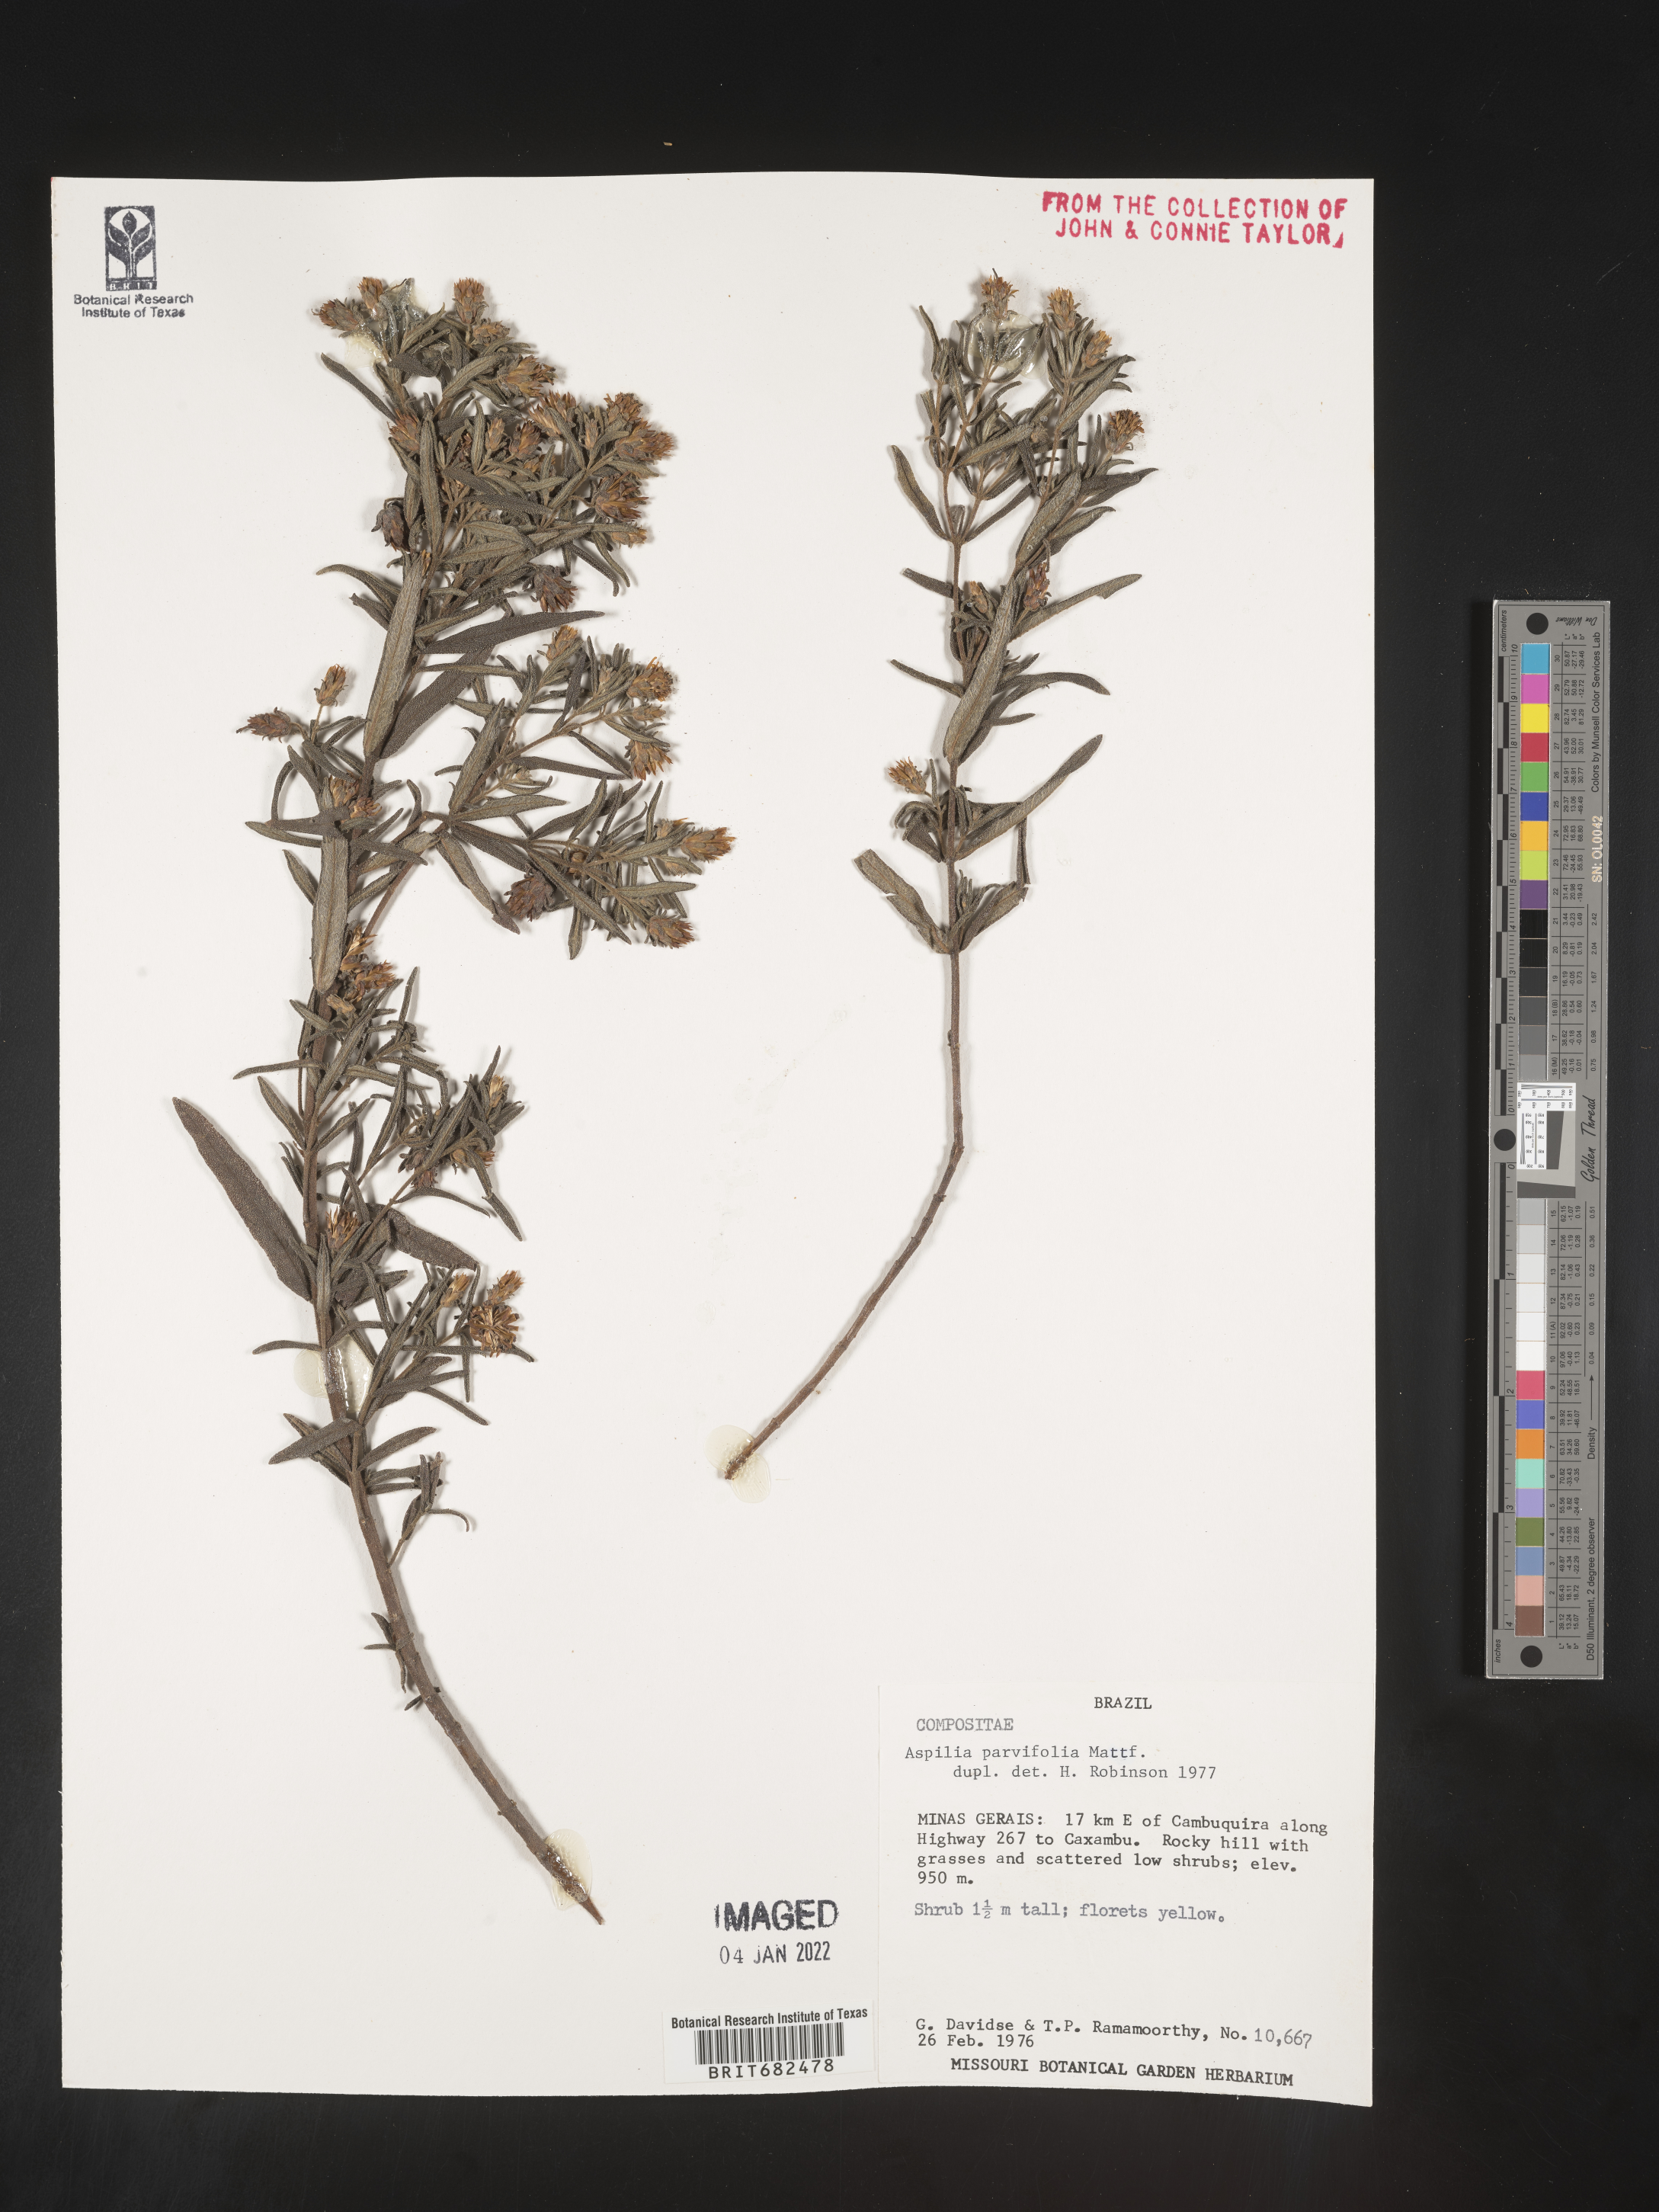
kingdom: Plantae
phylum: Tracheophyta
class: Magnoliopsida
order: Asterales
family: Asteraceae
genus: Aspilia
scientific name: Aspilia
